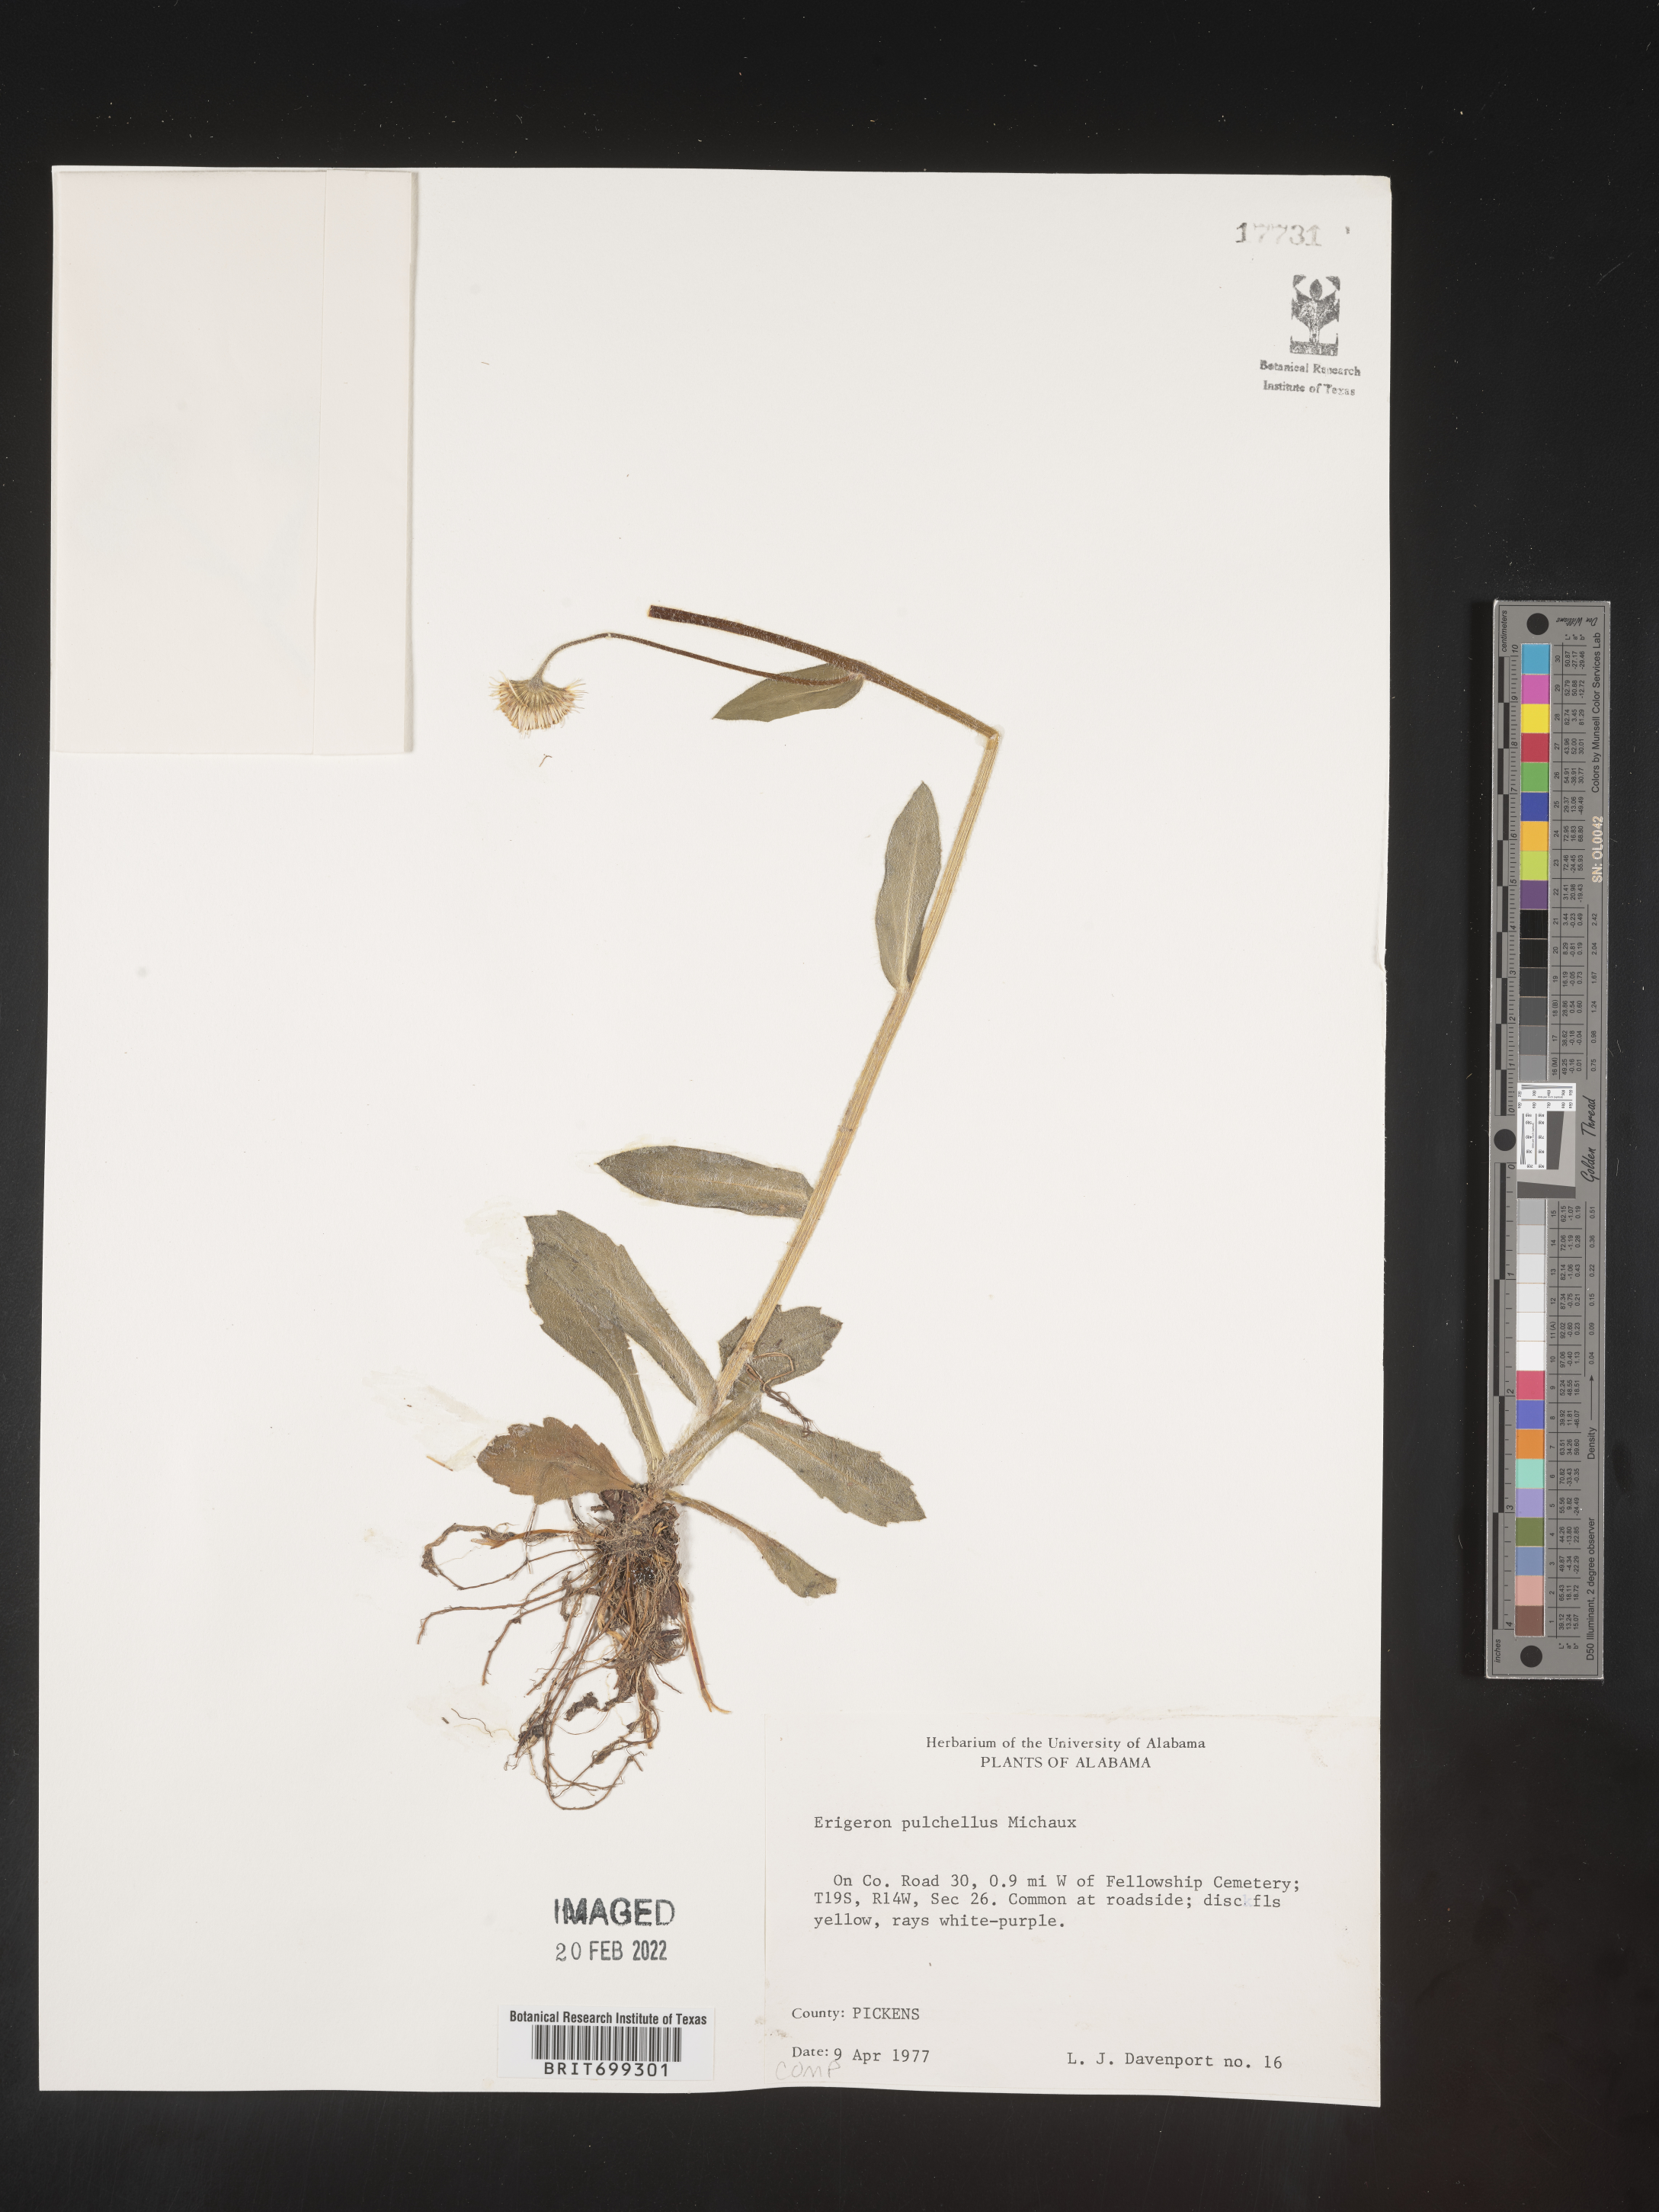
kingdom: Plantae
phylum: Tracheophyta
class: Magnoliopsida
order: Asterales
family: Asteraceae
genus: Erigeron
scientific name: Erigeron pulchellus
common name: Hairy fleabane
